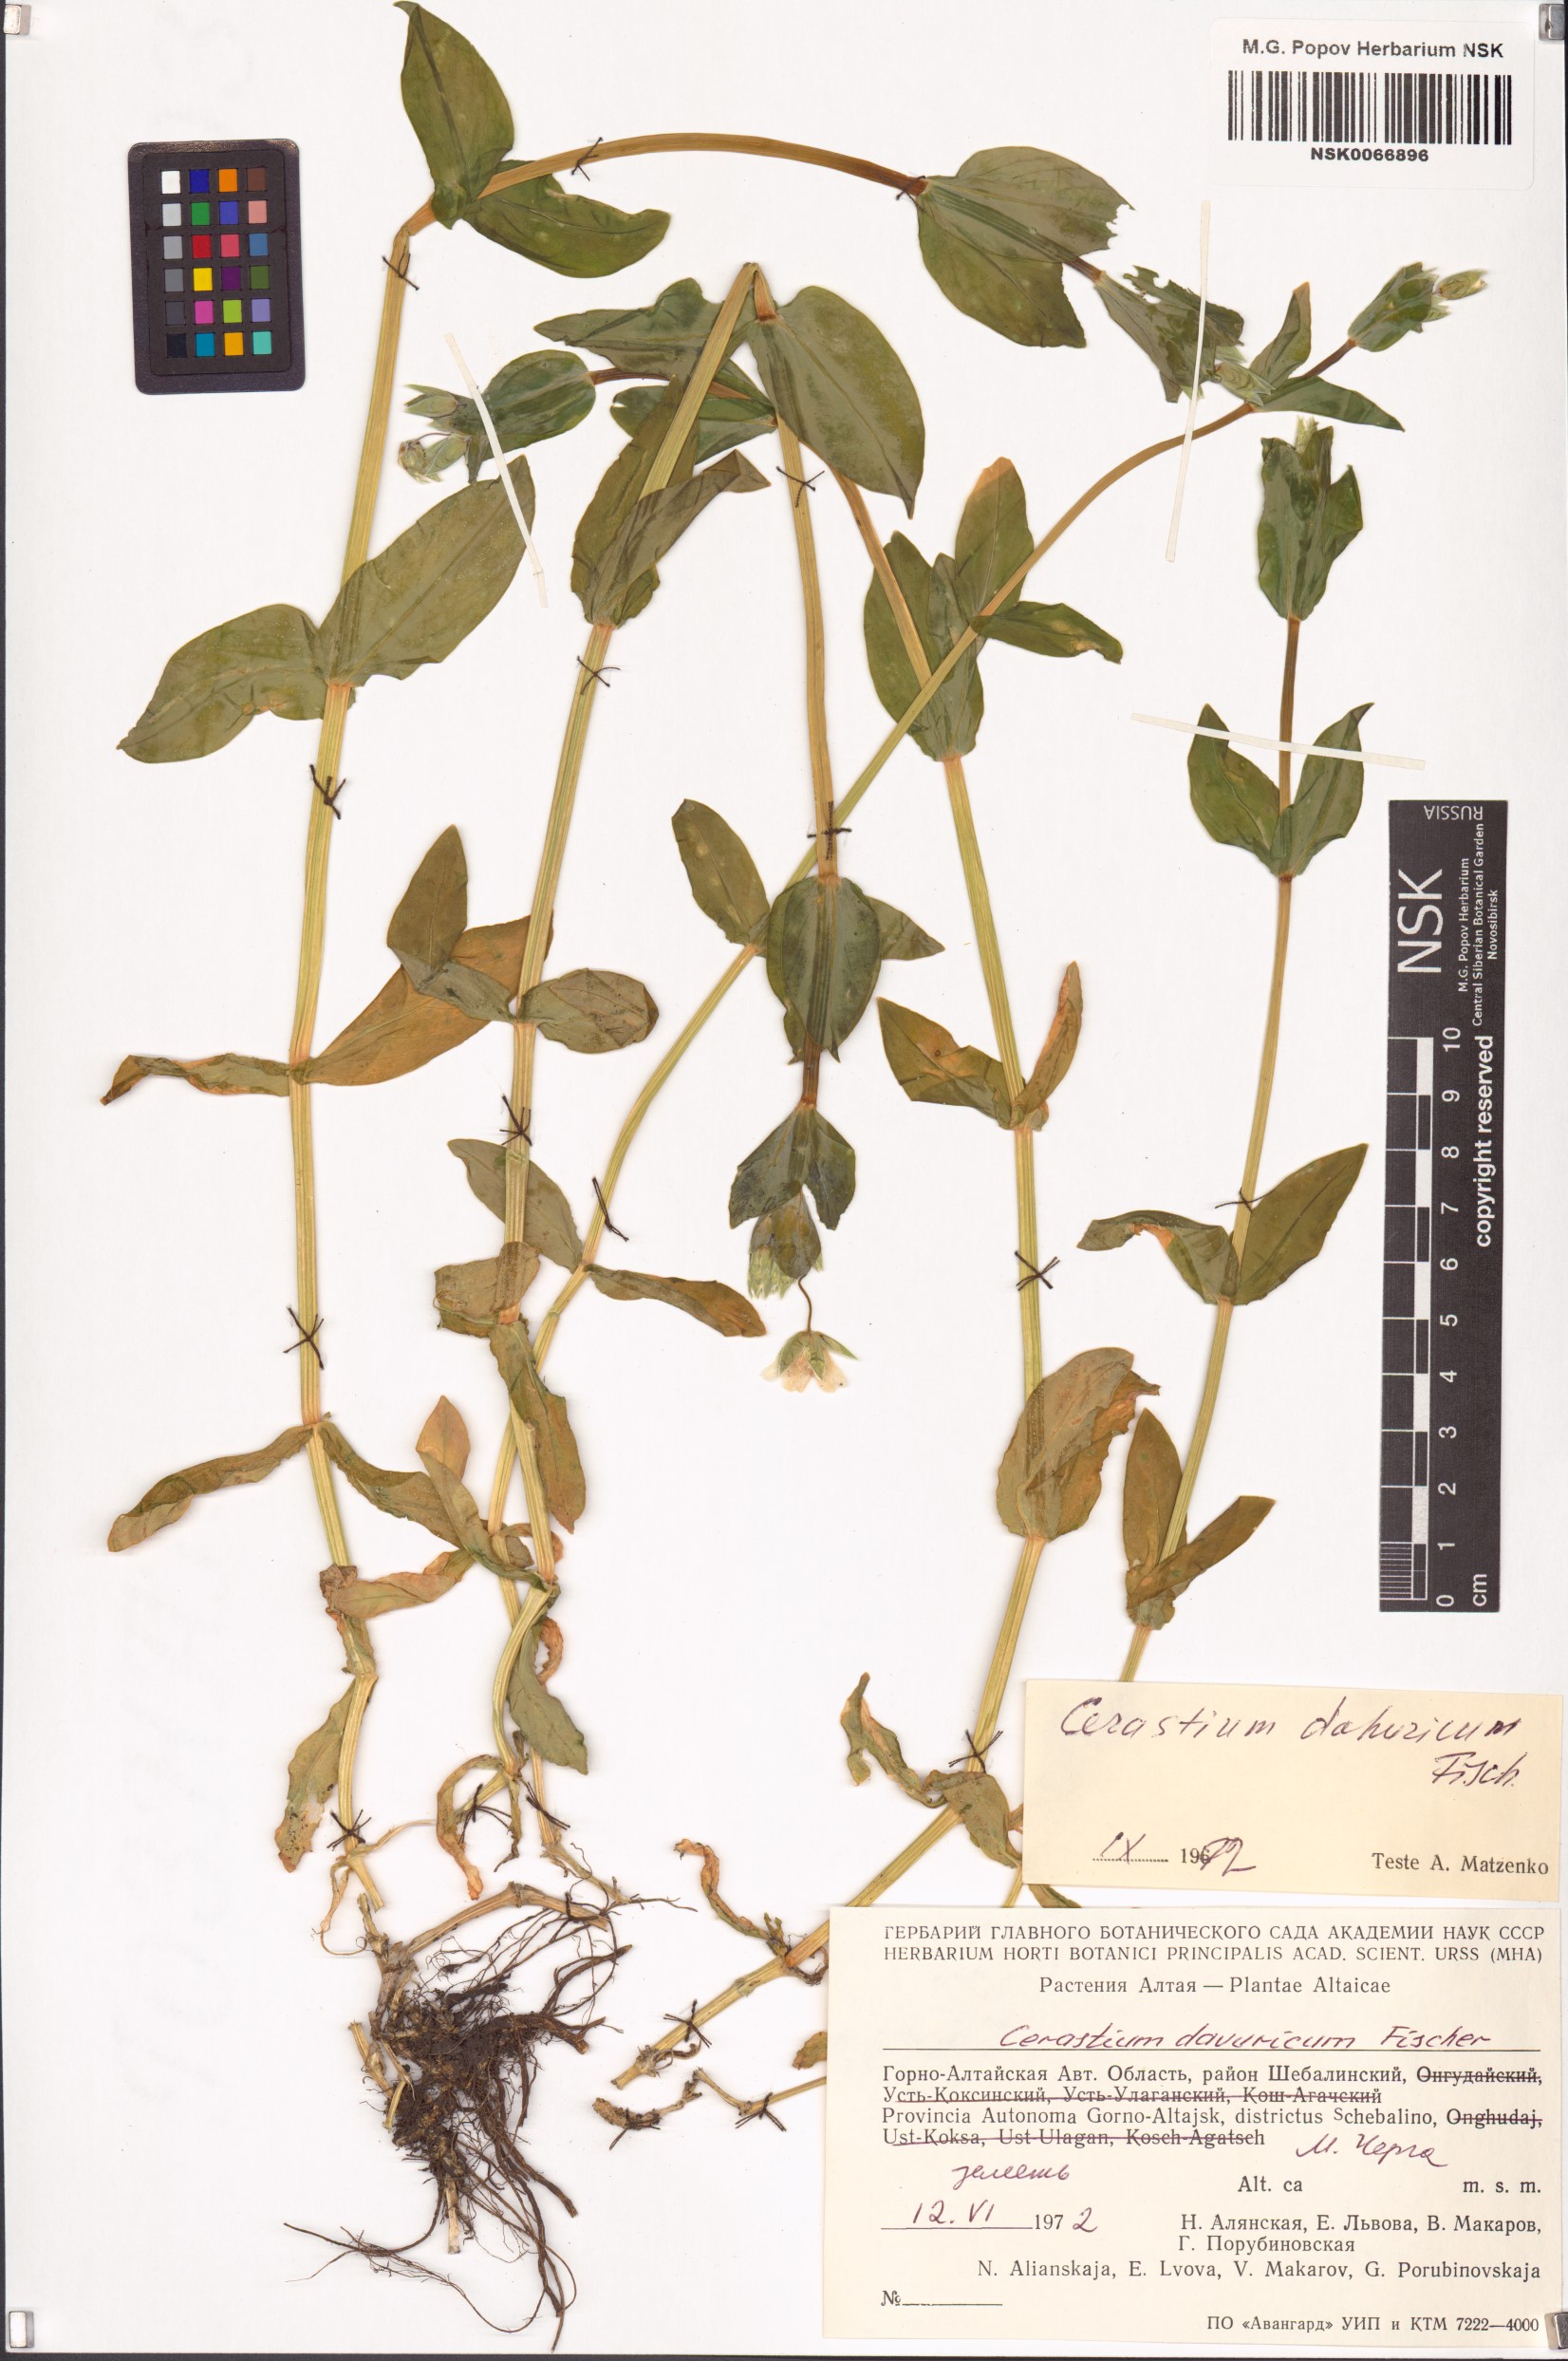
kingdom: Plantae
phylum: Tracheophyta
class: Magnoliopsida
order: Caryophyllales
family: Caryophyllaceae
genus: Cerastium
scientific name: Cerastium davuricum
